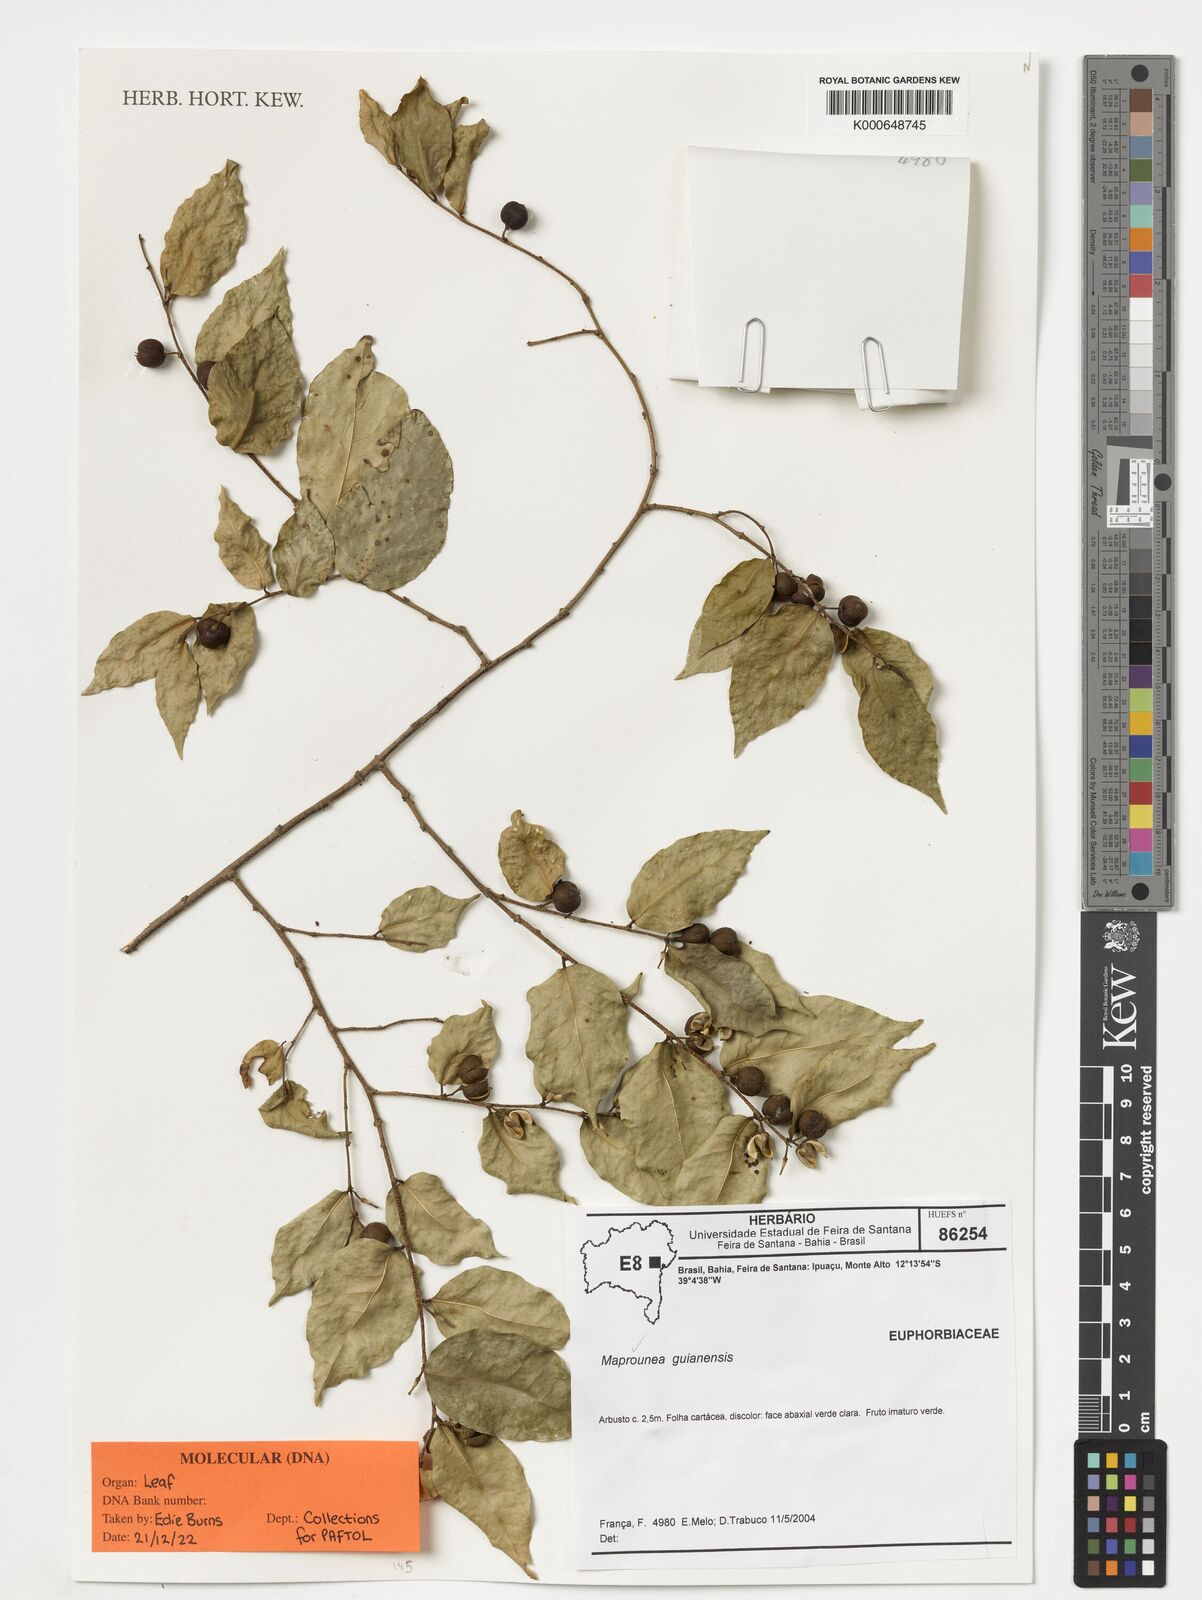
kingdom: Plantae
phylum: Tracheophyta
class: Magnoliopsida
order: Malpighiales
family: Euphorbiaceae
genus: Maprounea
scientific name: Maprounea guianensis
